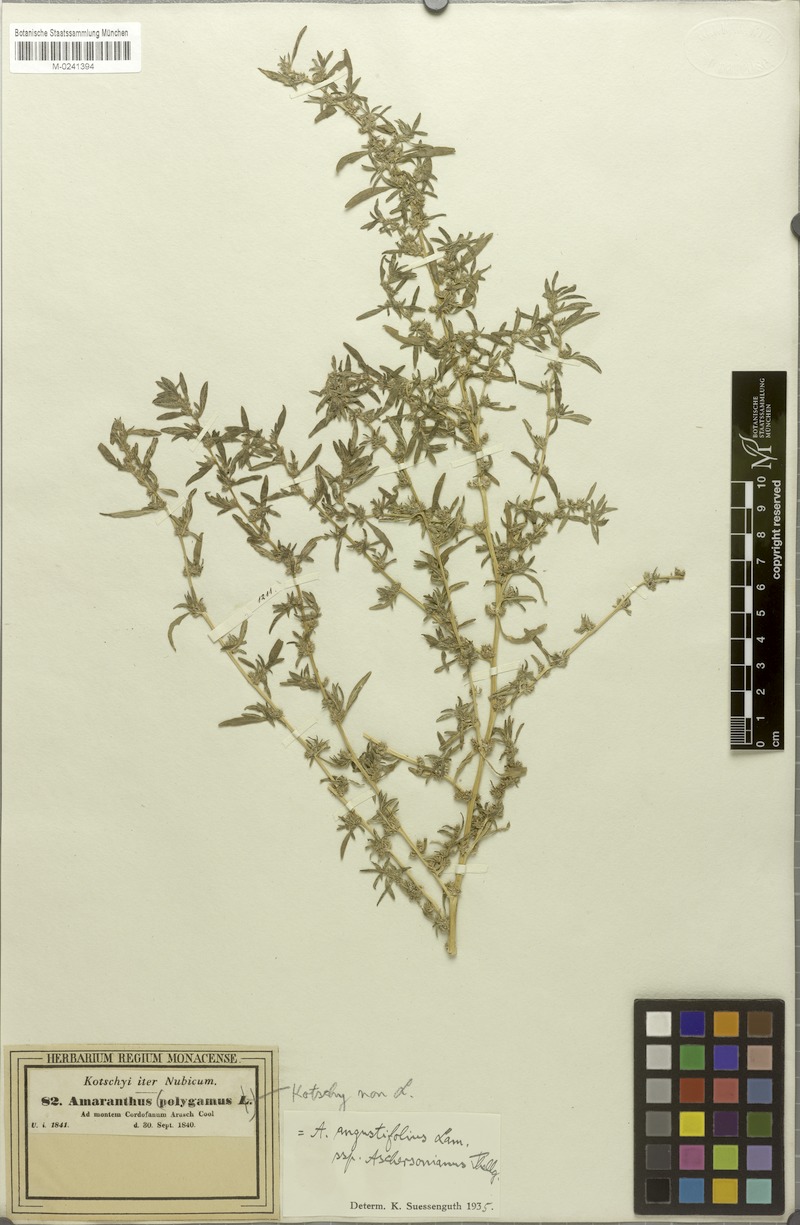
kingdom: Plantae
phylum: Tracheophyta
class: Magnoliopsida
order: Caryophyllales
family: Amaranthaceae
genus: Amaranthus
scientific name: Amaranthus graecizans
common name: Mediterranean amaranth
